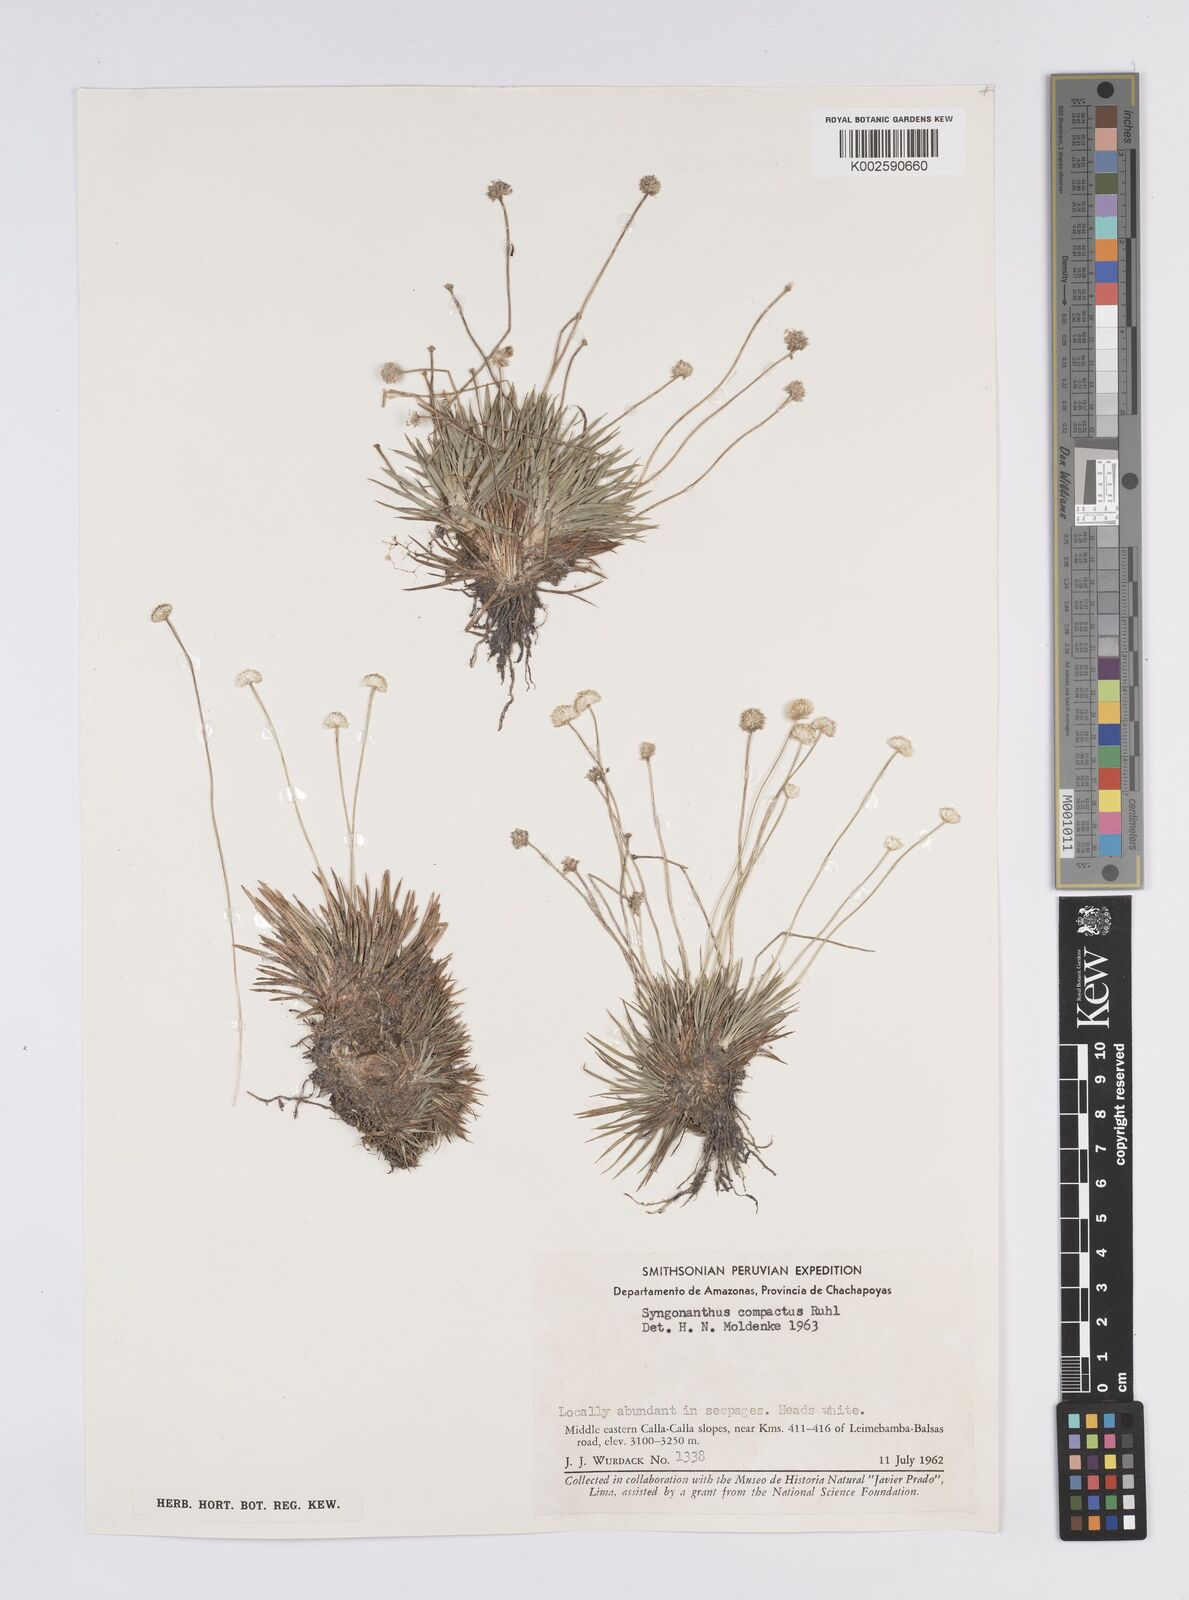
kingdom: Plantae
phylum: Tracheophyta
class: Liliopsida
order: Poales
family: Eriocaulaceae
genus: Syngonanthus
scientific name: Syngonanthus
